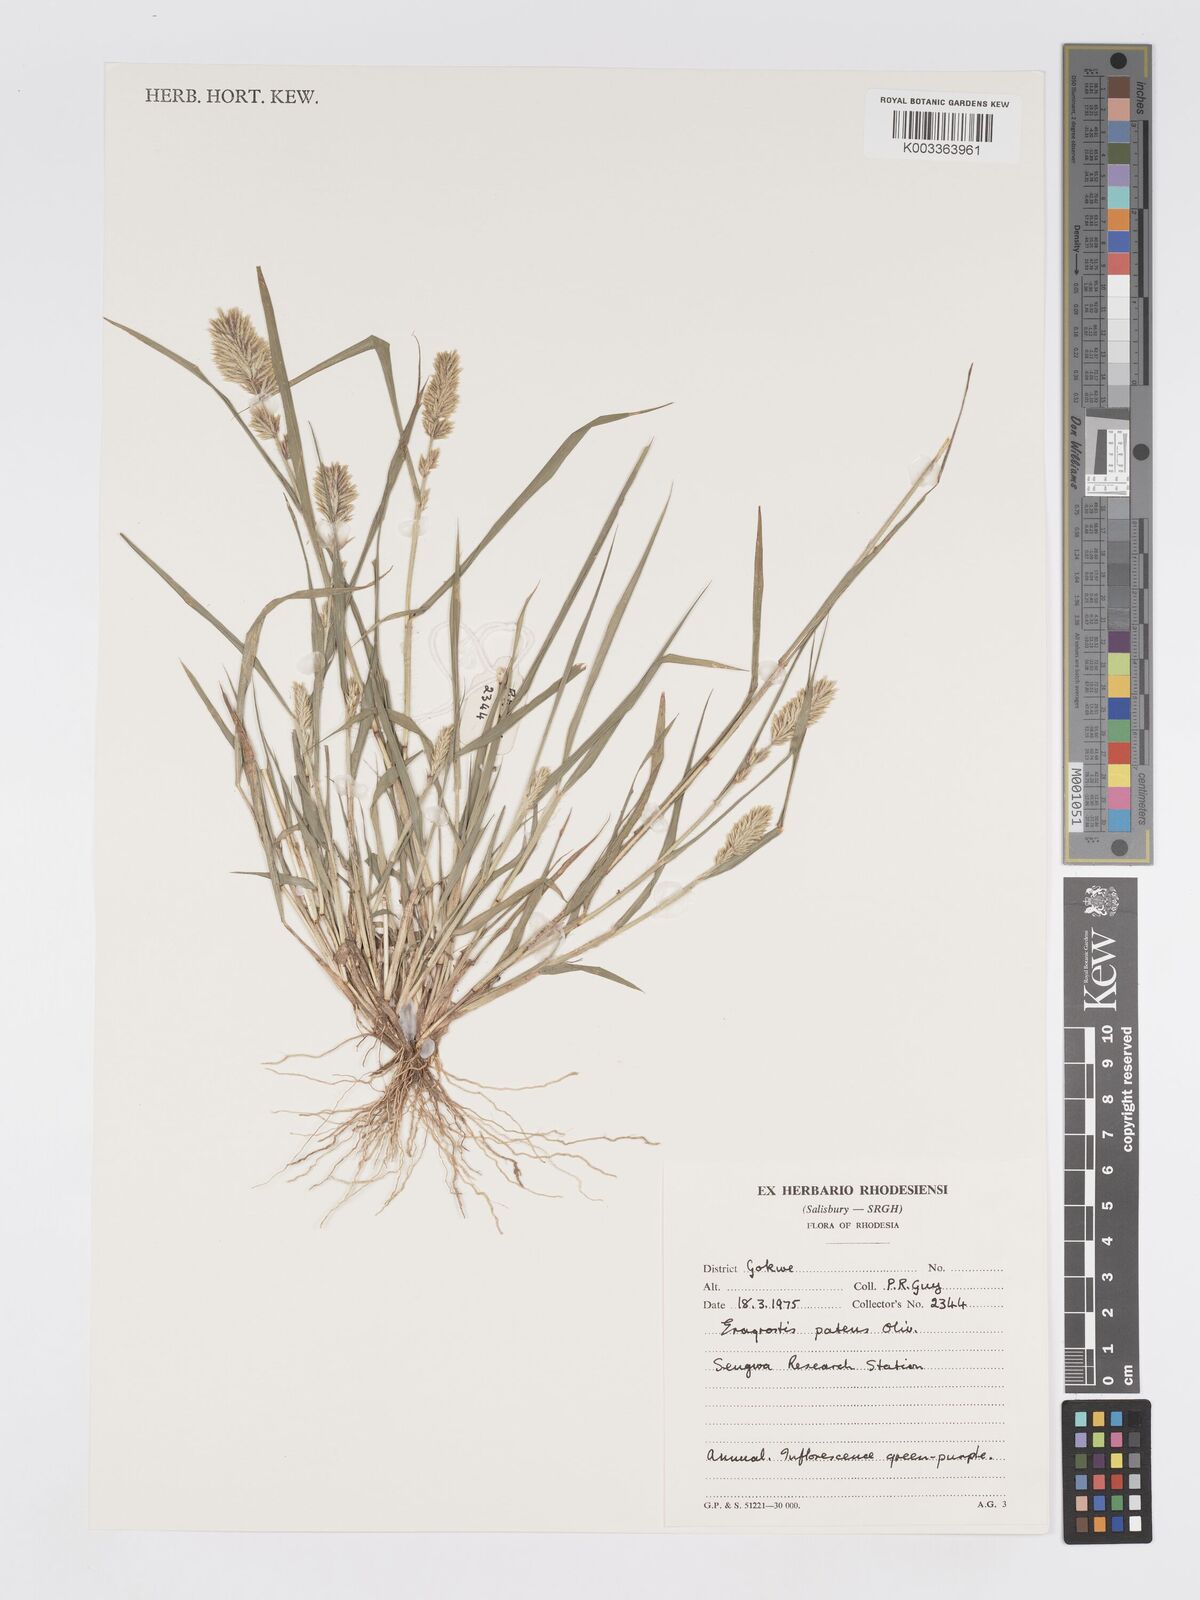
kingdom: Plantae
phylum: Tracheophyta
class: Liliopsida
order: Poales
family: Poaceae
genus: Eragrostis
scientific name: Eragrostis patens
